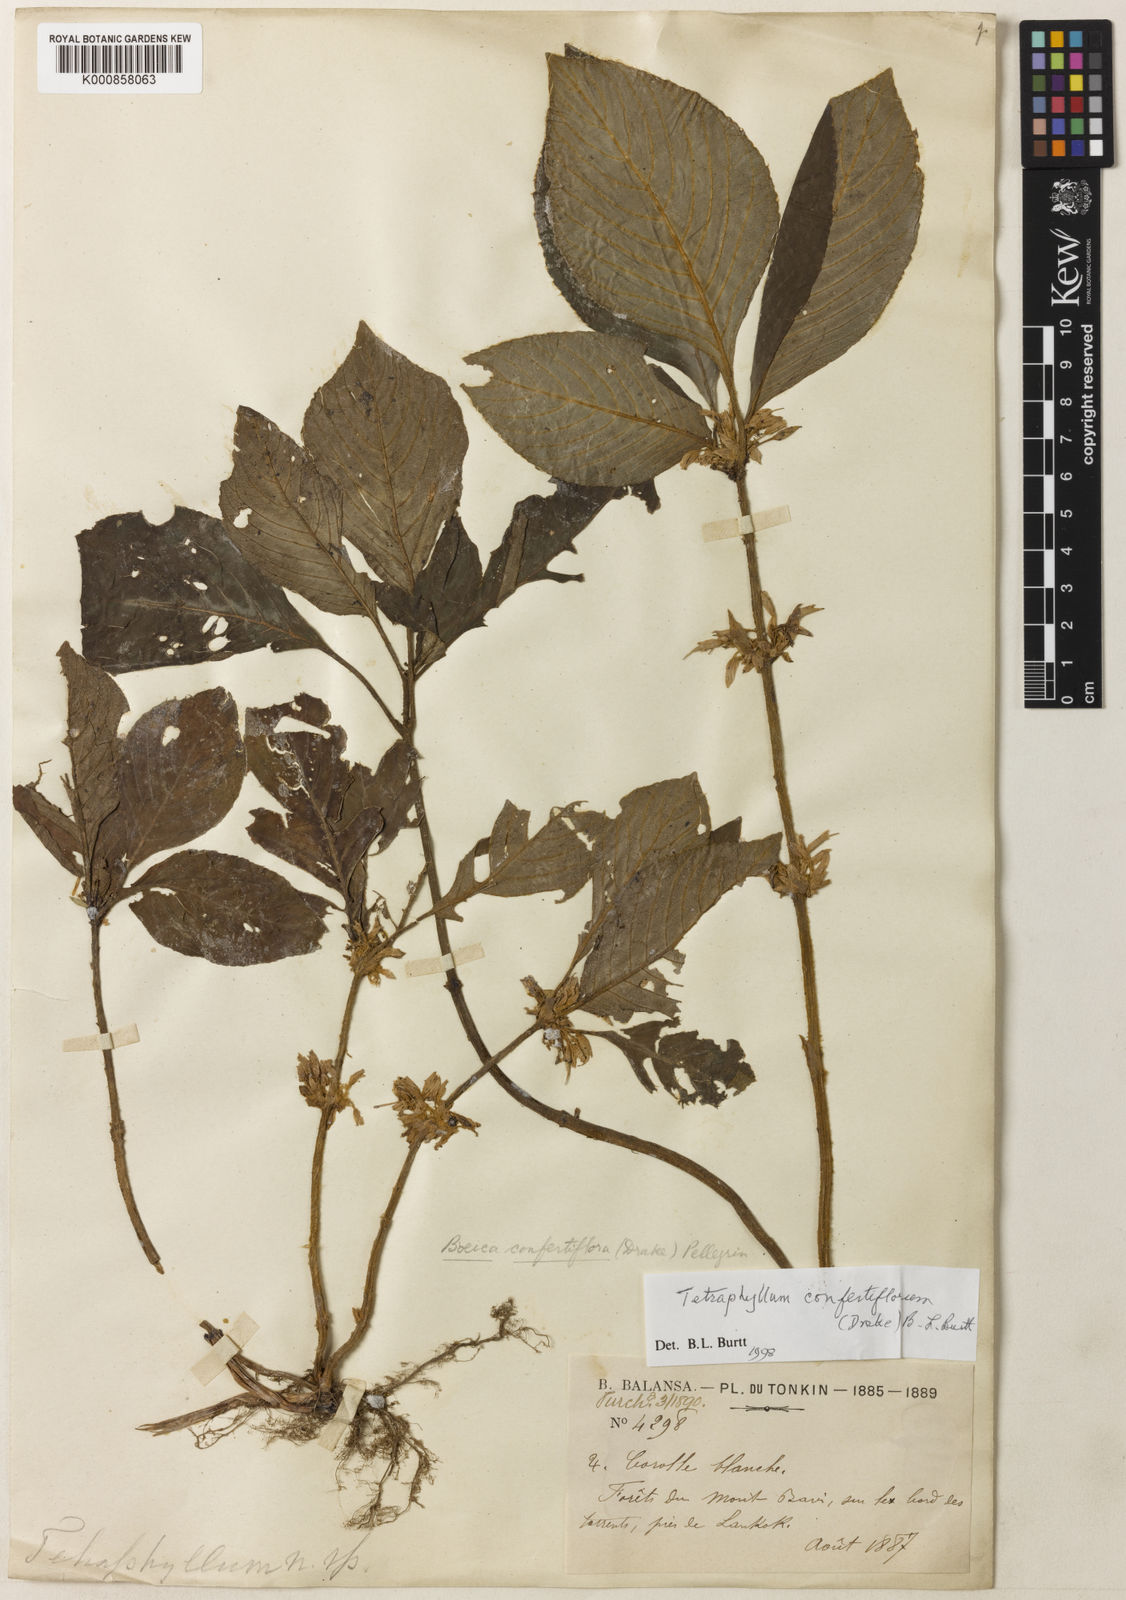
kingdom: Plantae
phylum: Tracheophyta
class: Magnoliopsida
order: Lamiales
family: Gesneriaceae
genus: Tetraphylloides
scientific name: Tetraphylloides confertiflora
